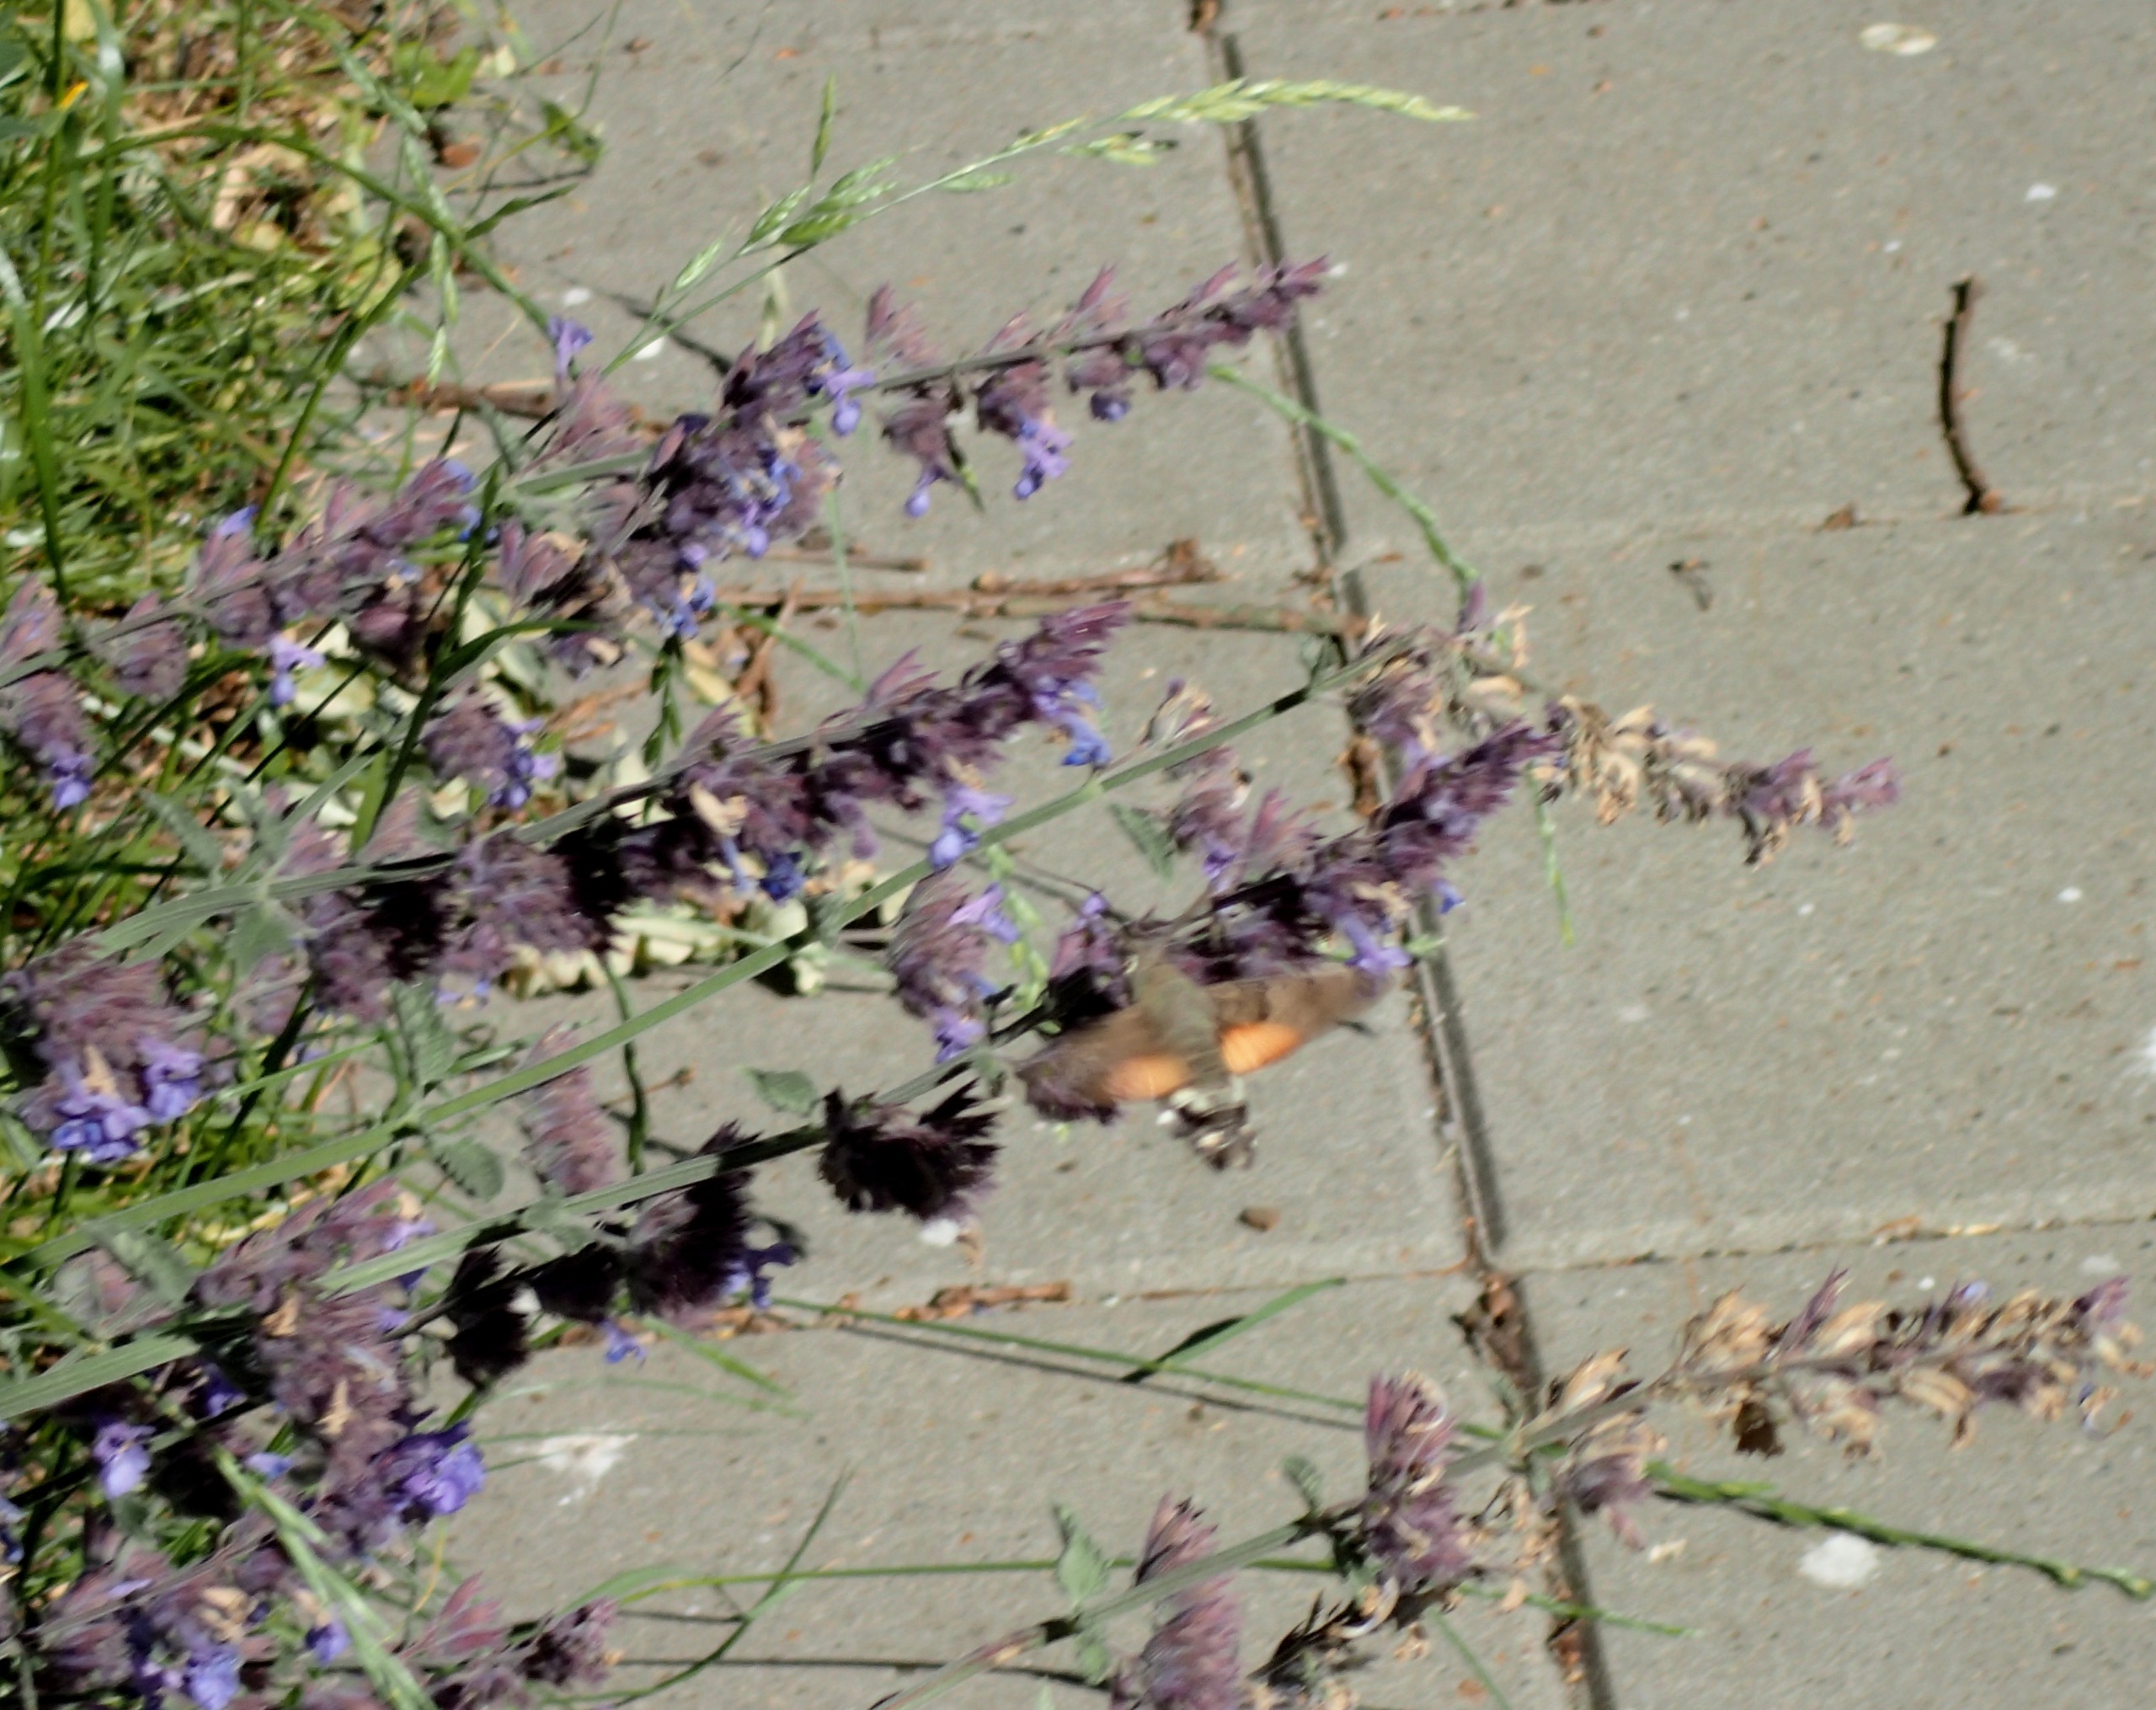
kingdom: Animalia
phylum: Arthropoda
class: Insecta
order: Lepidoptera
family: Sphingidae
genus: Macroglossum
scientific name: Macroglossum stellatarum
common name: Duehale
